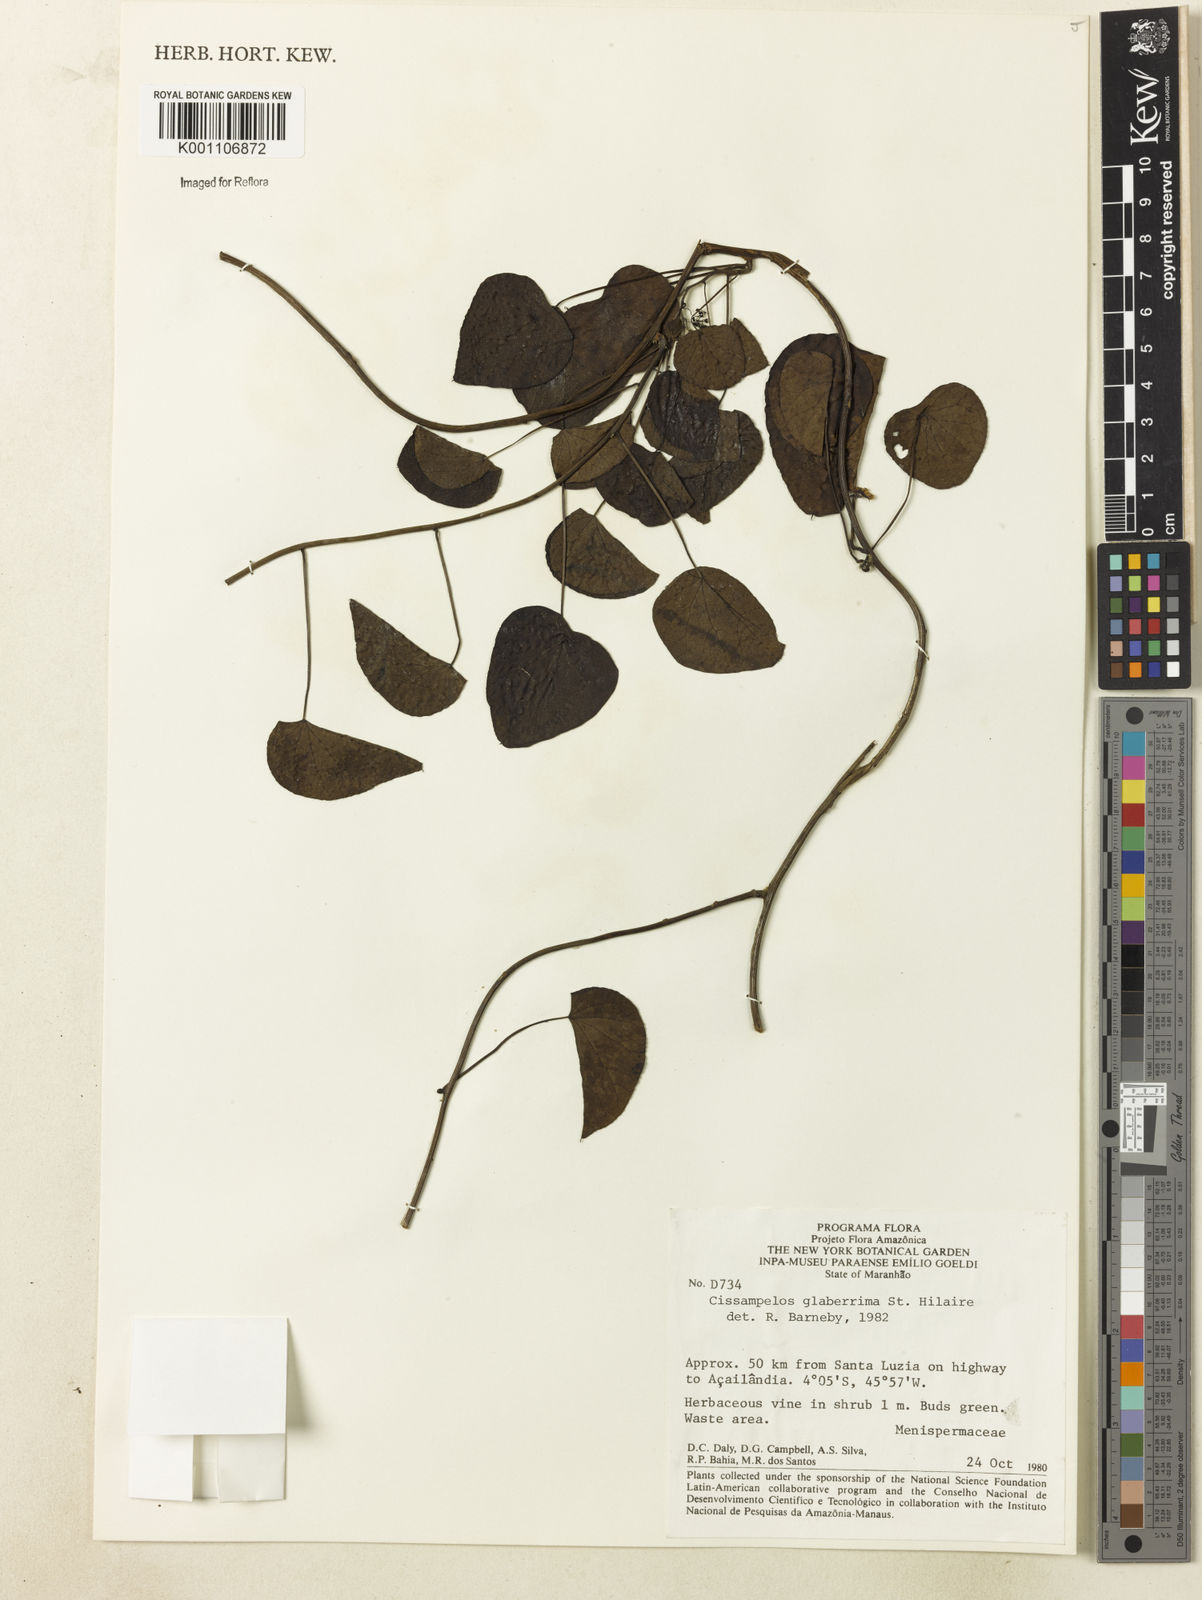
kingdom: Plantae
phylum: Tracheophyta
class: Magnoliopsida
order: Ranunculales
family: Menispermaceae
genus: Cissampelos
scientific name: Cissampelos glaberrima
